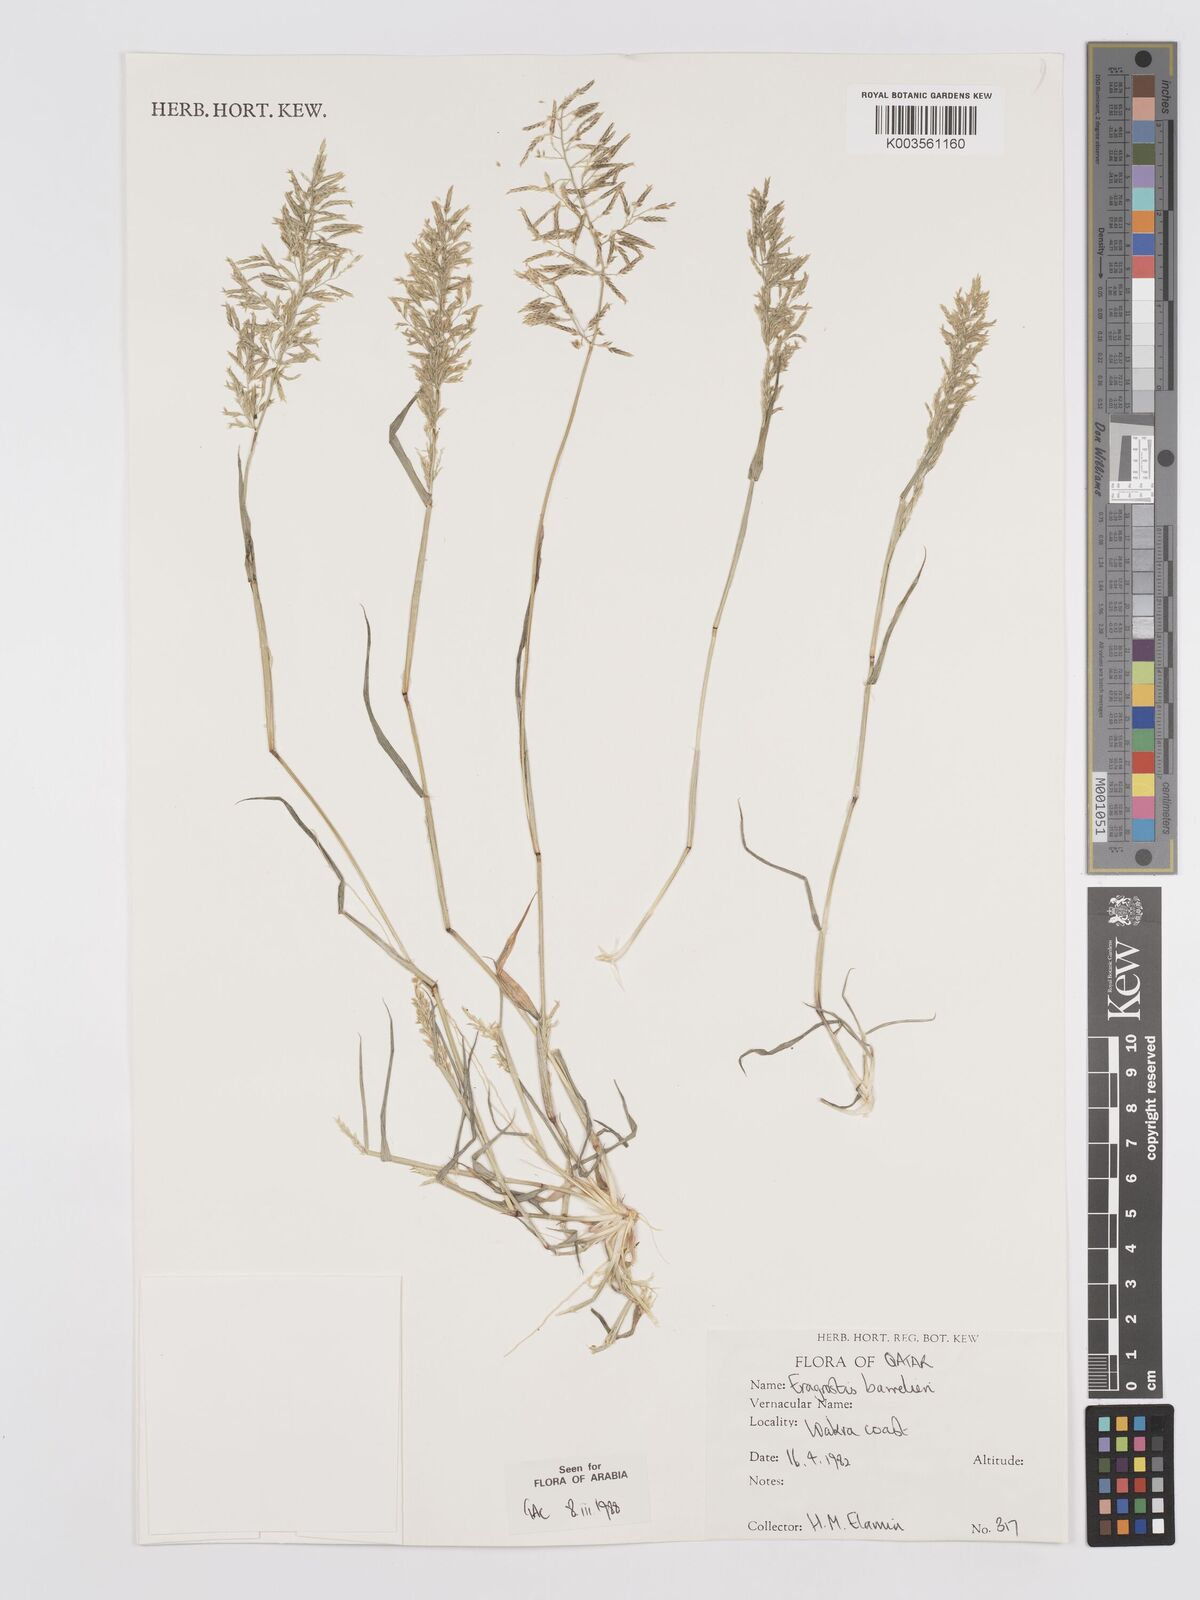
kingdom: Plantae
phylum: Tracheophyta
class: Liliopsida
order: Poales
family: Poaceae
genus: Eragrostis
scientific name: Eragrostis barrelieri
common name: Mediterranean lovegrass
